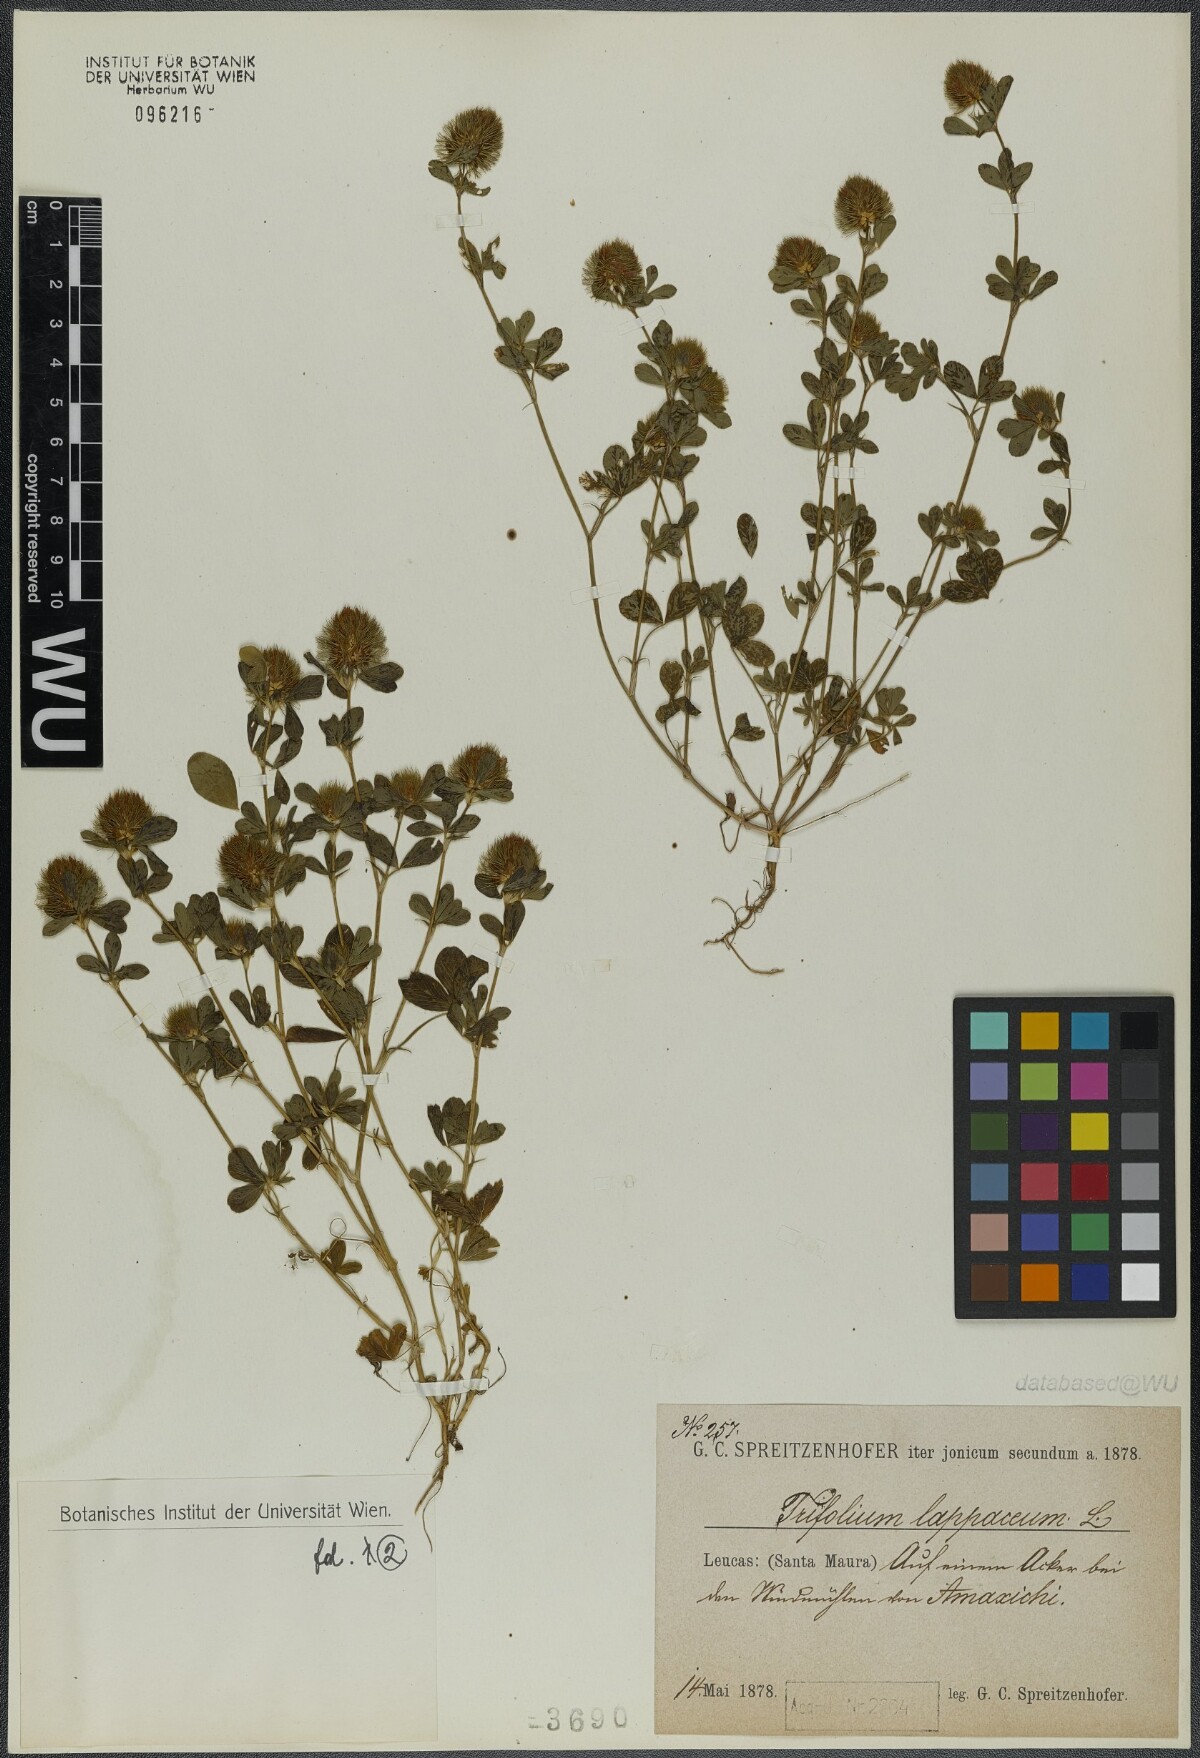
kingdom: Plantae
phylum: Tracheophyta
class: Magnoliopsida
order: Fabales
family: Fabaceae
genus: Trifolium
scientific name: Trifolium lappaceum
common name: Bur clover
